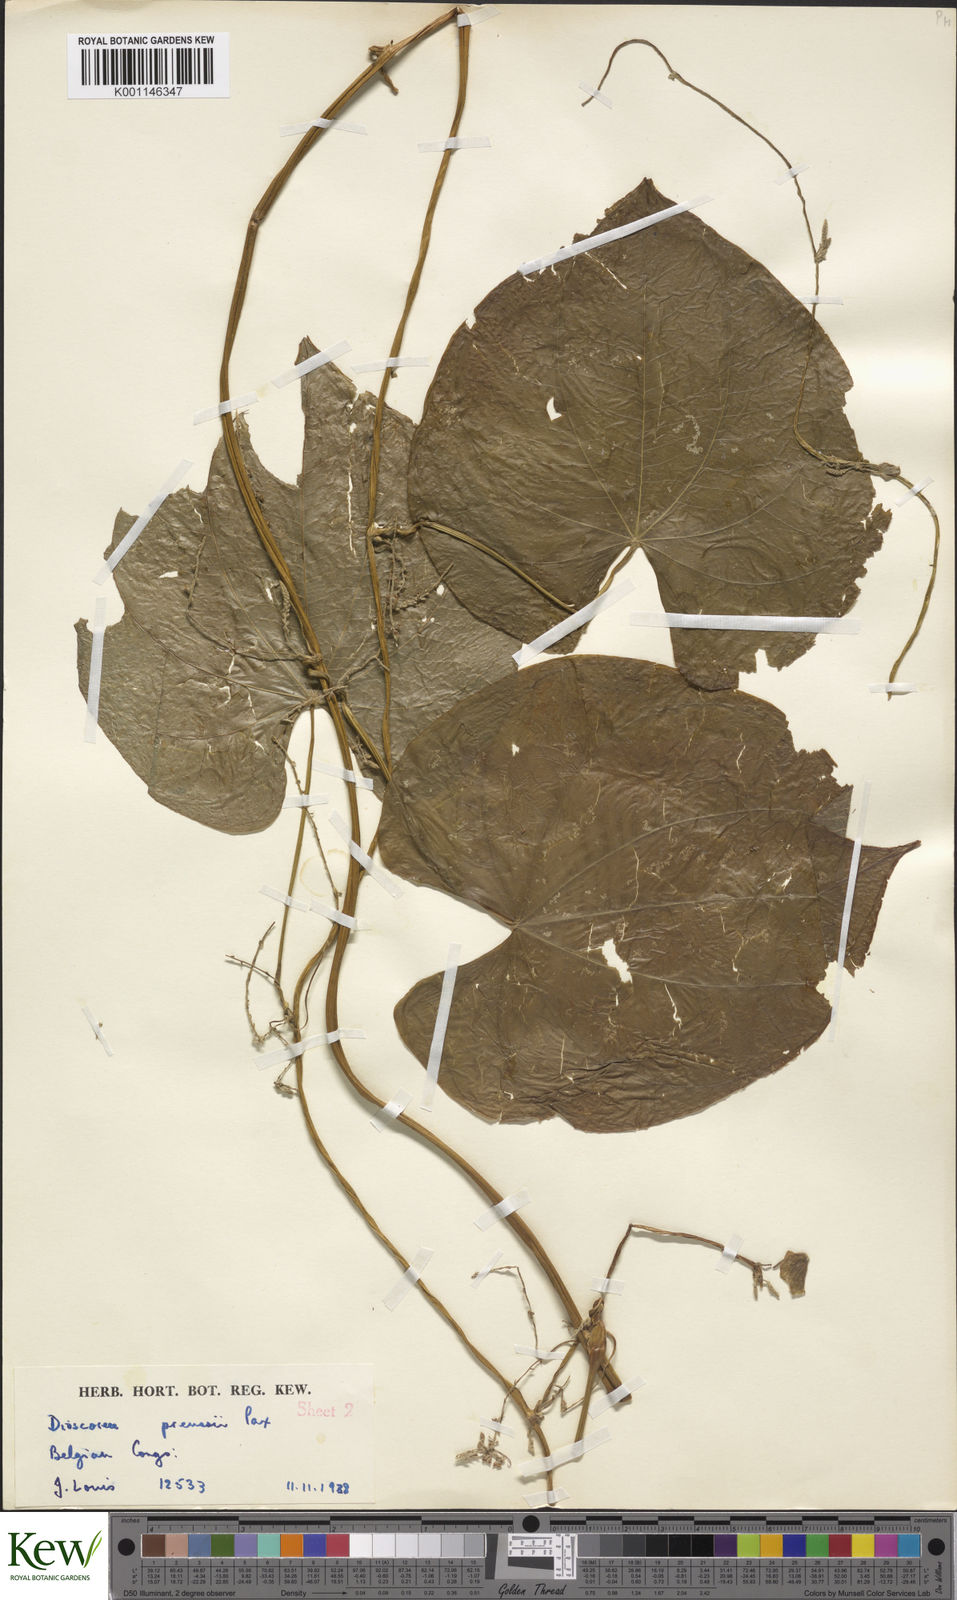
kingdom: Plantae
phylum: Tracheophyta
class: Liliopsida
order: Dioscoreales
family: Dioscoreaceae
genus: Dioscorea
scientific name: Dioscorea preussii
